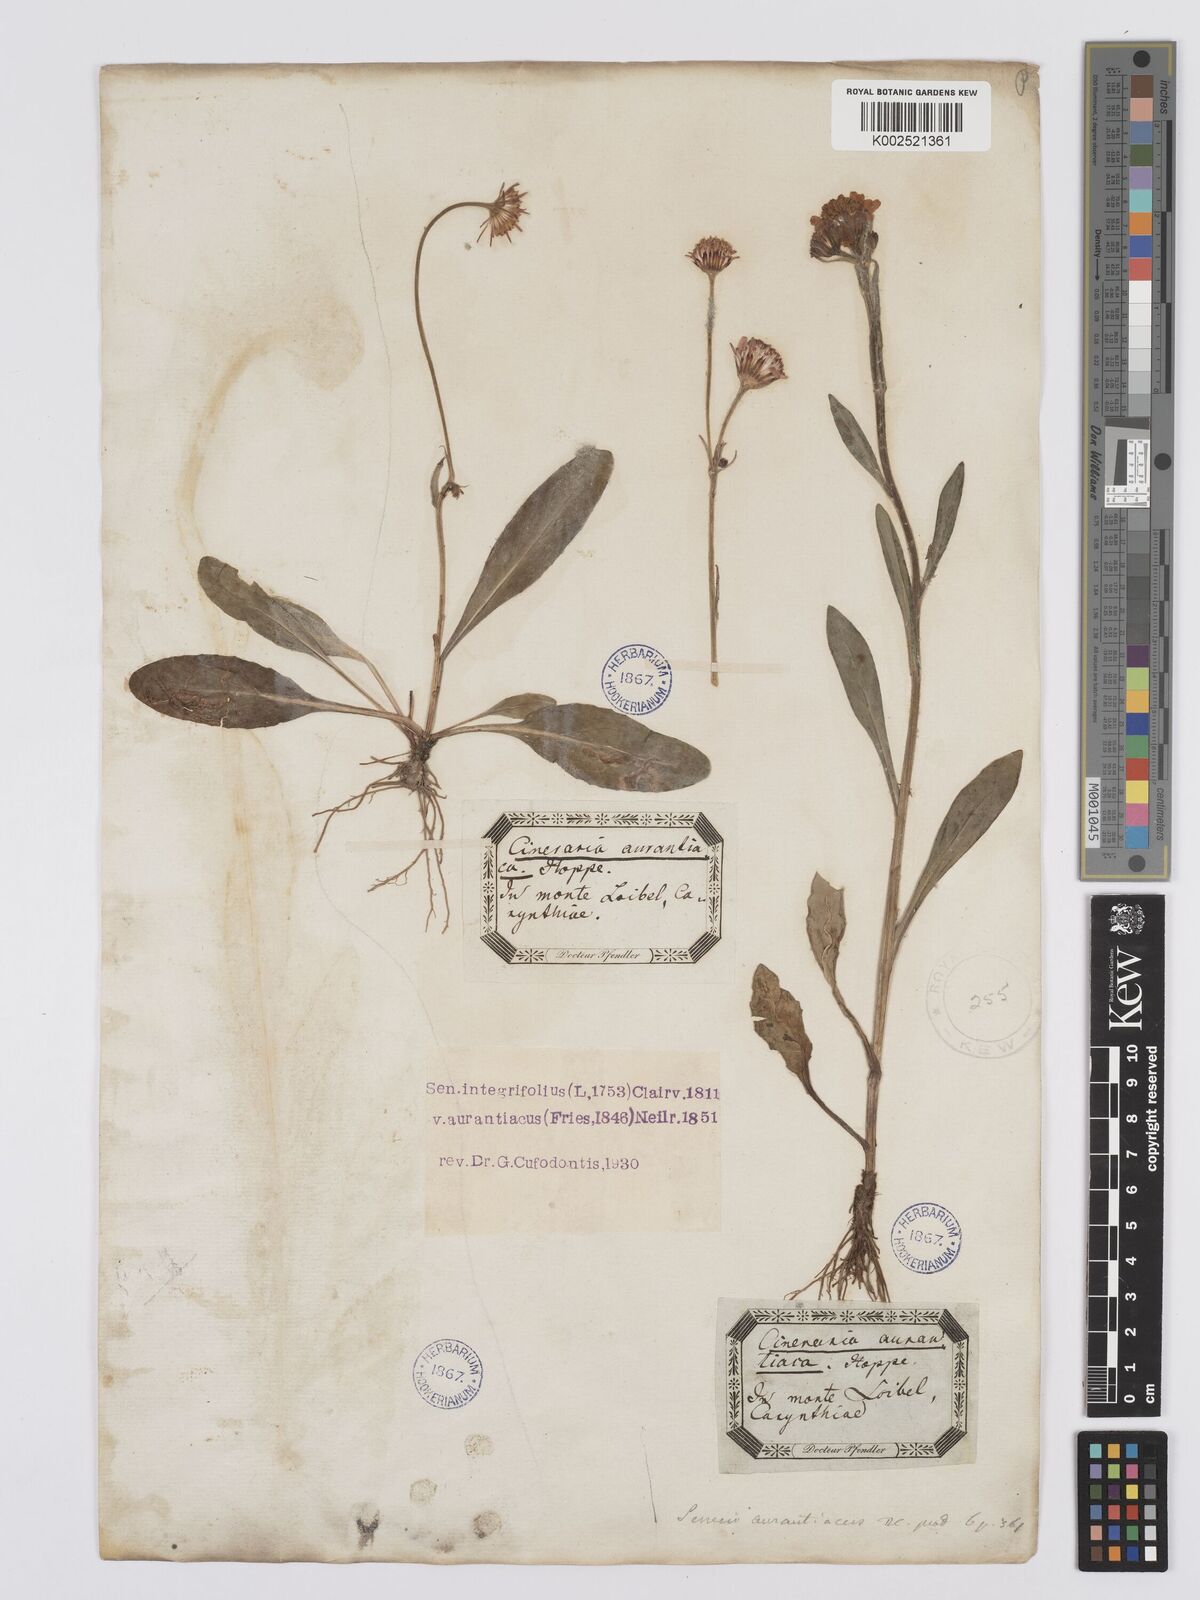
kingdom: Plantae
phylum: Tracheophyta
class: Magnoliopsida
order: Asterales
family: Asteraceae
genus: Tephroseris
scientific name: Tephroseris aurantiaca
